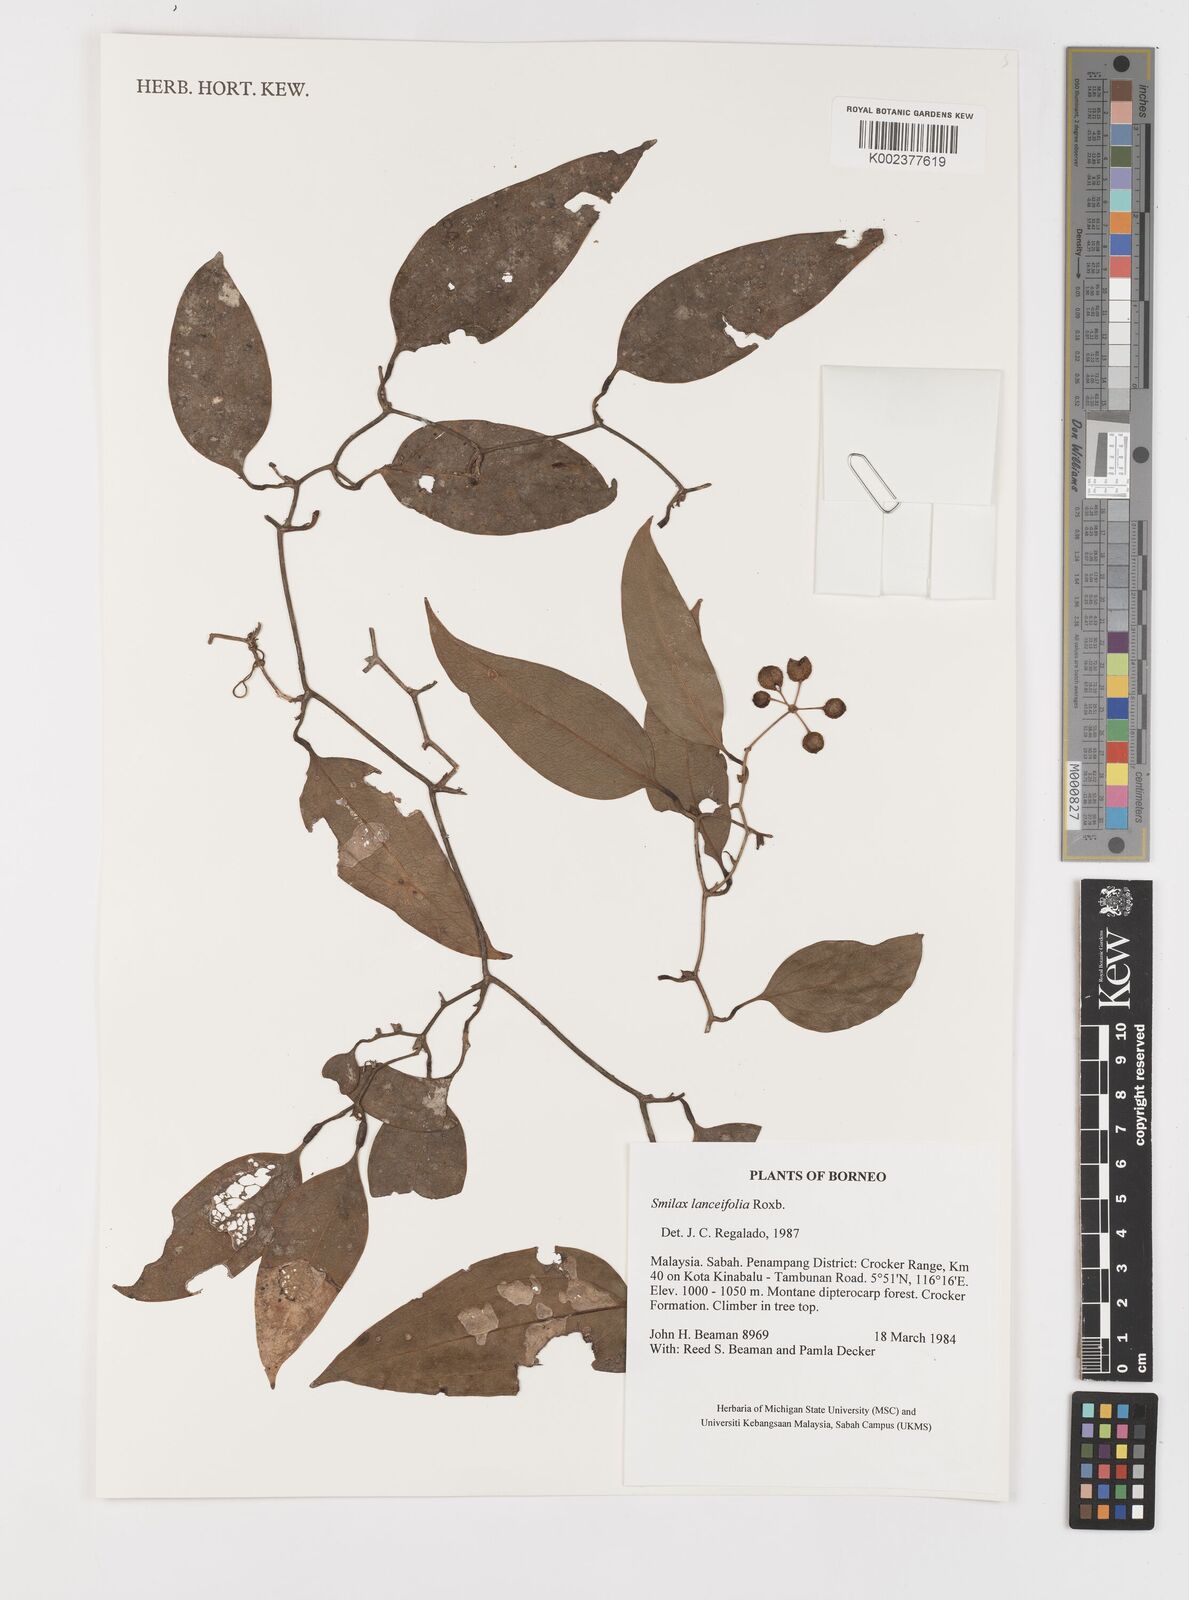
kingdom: Plantae
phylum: Tracheophyta
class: Liliopsida
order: Liliales
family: Smilacaceae
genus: Smilax
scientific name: Smilax lanceifolia
